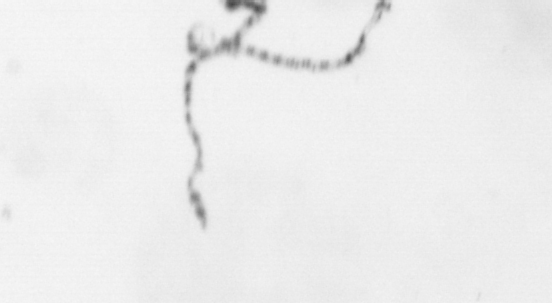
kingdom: Animalia
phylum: Cnidaria
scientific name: Cnidaria
